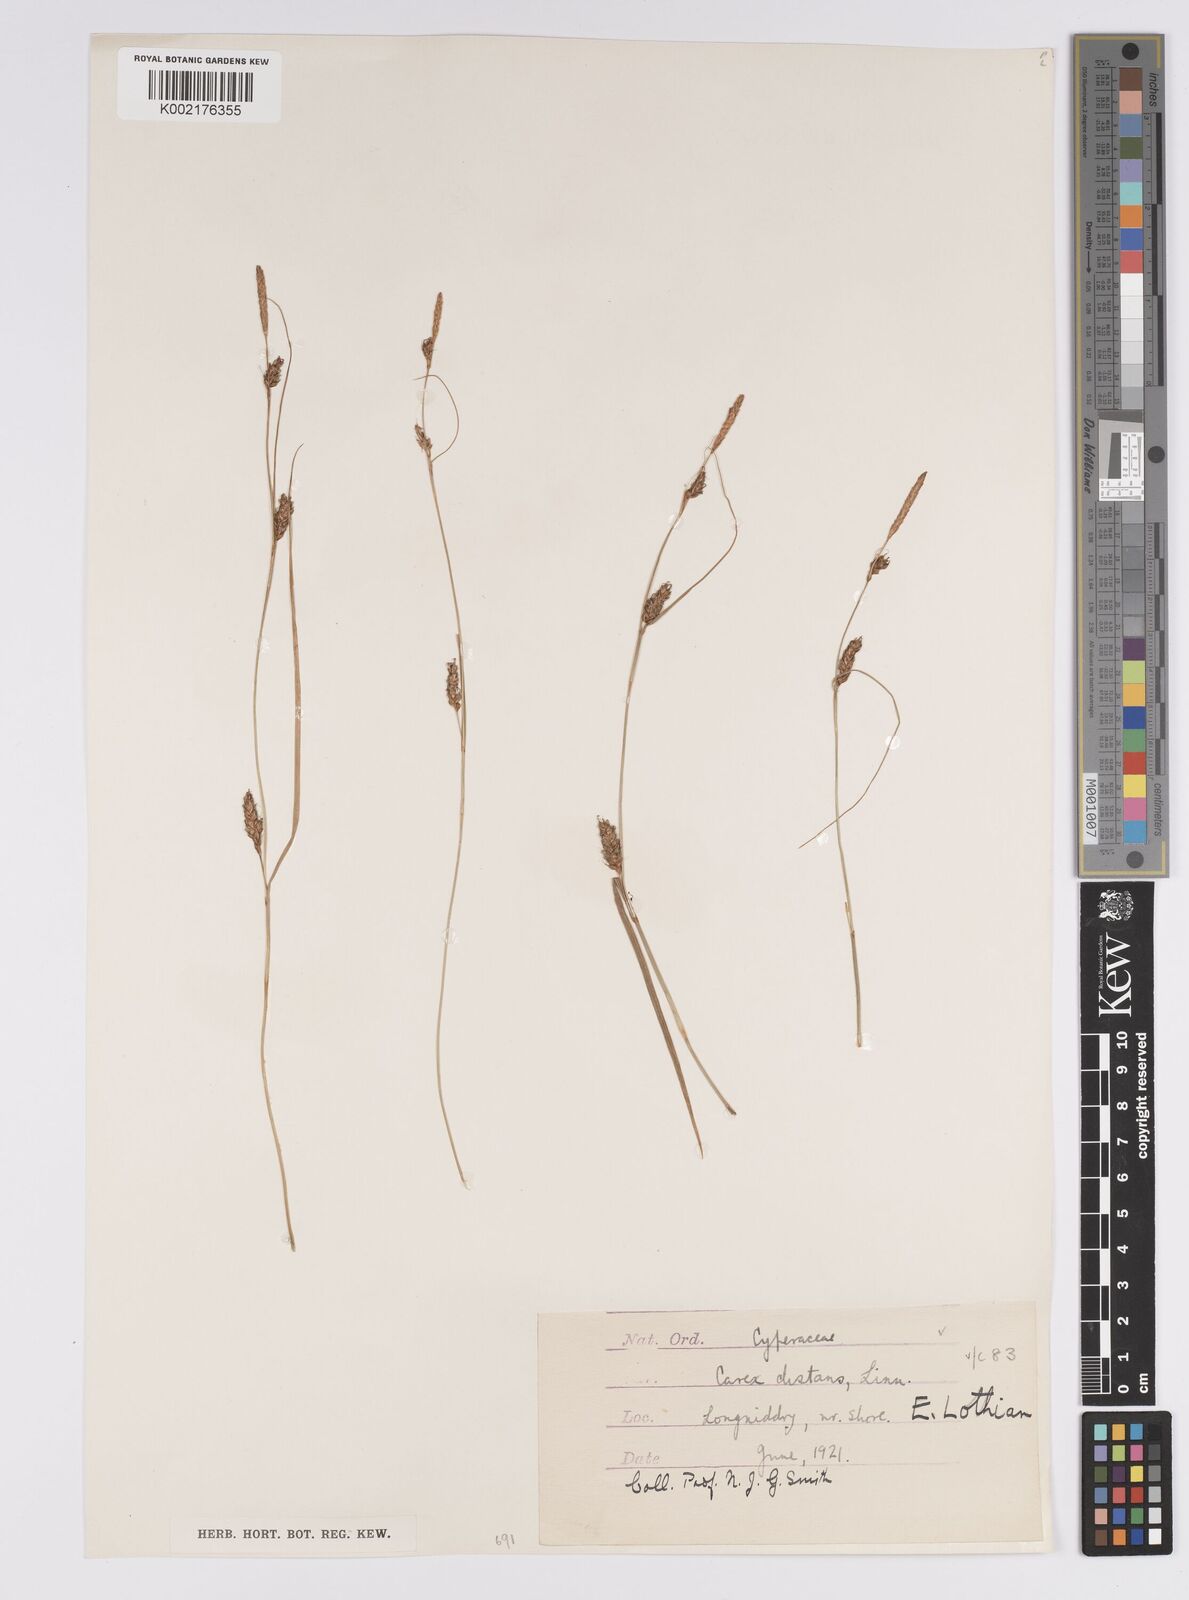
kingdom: Plantae
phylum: Tracheophyta
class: Liliopsida
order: Poales
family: Cyperaceae
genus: Carex
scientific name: Carex distans
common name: Distant sedge
